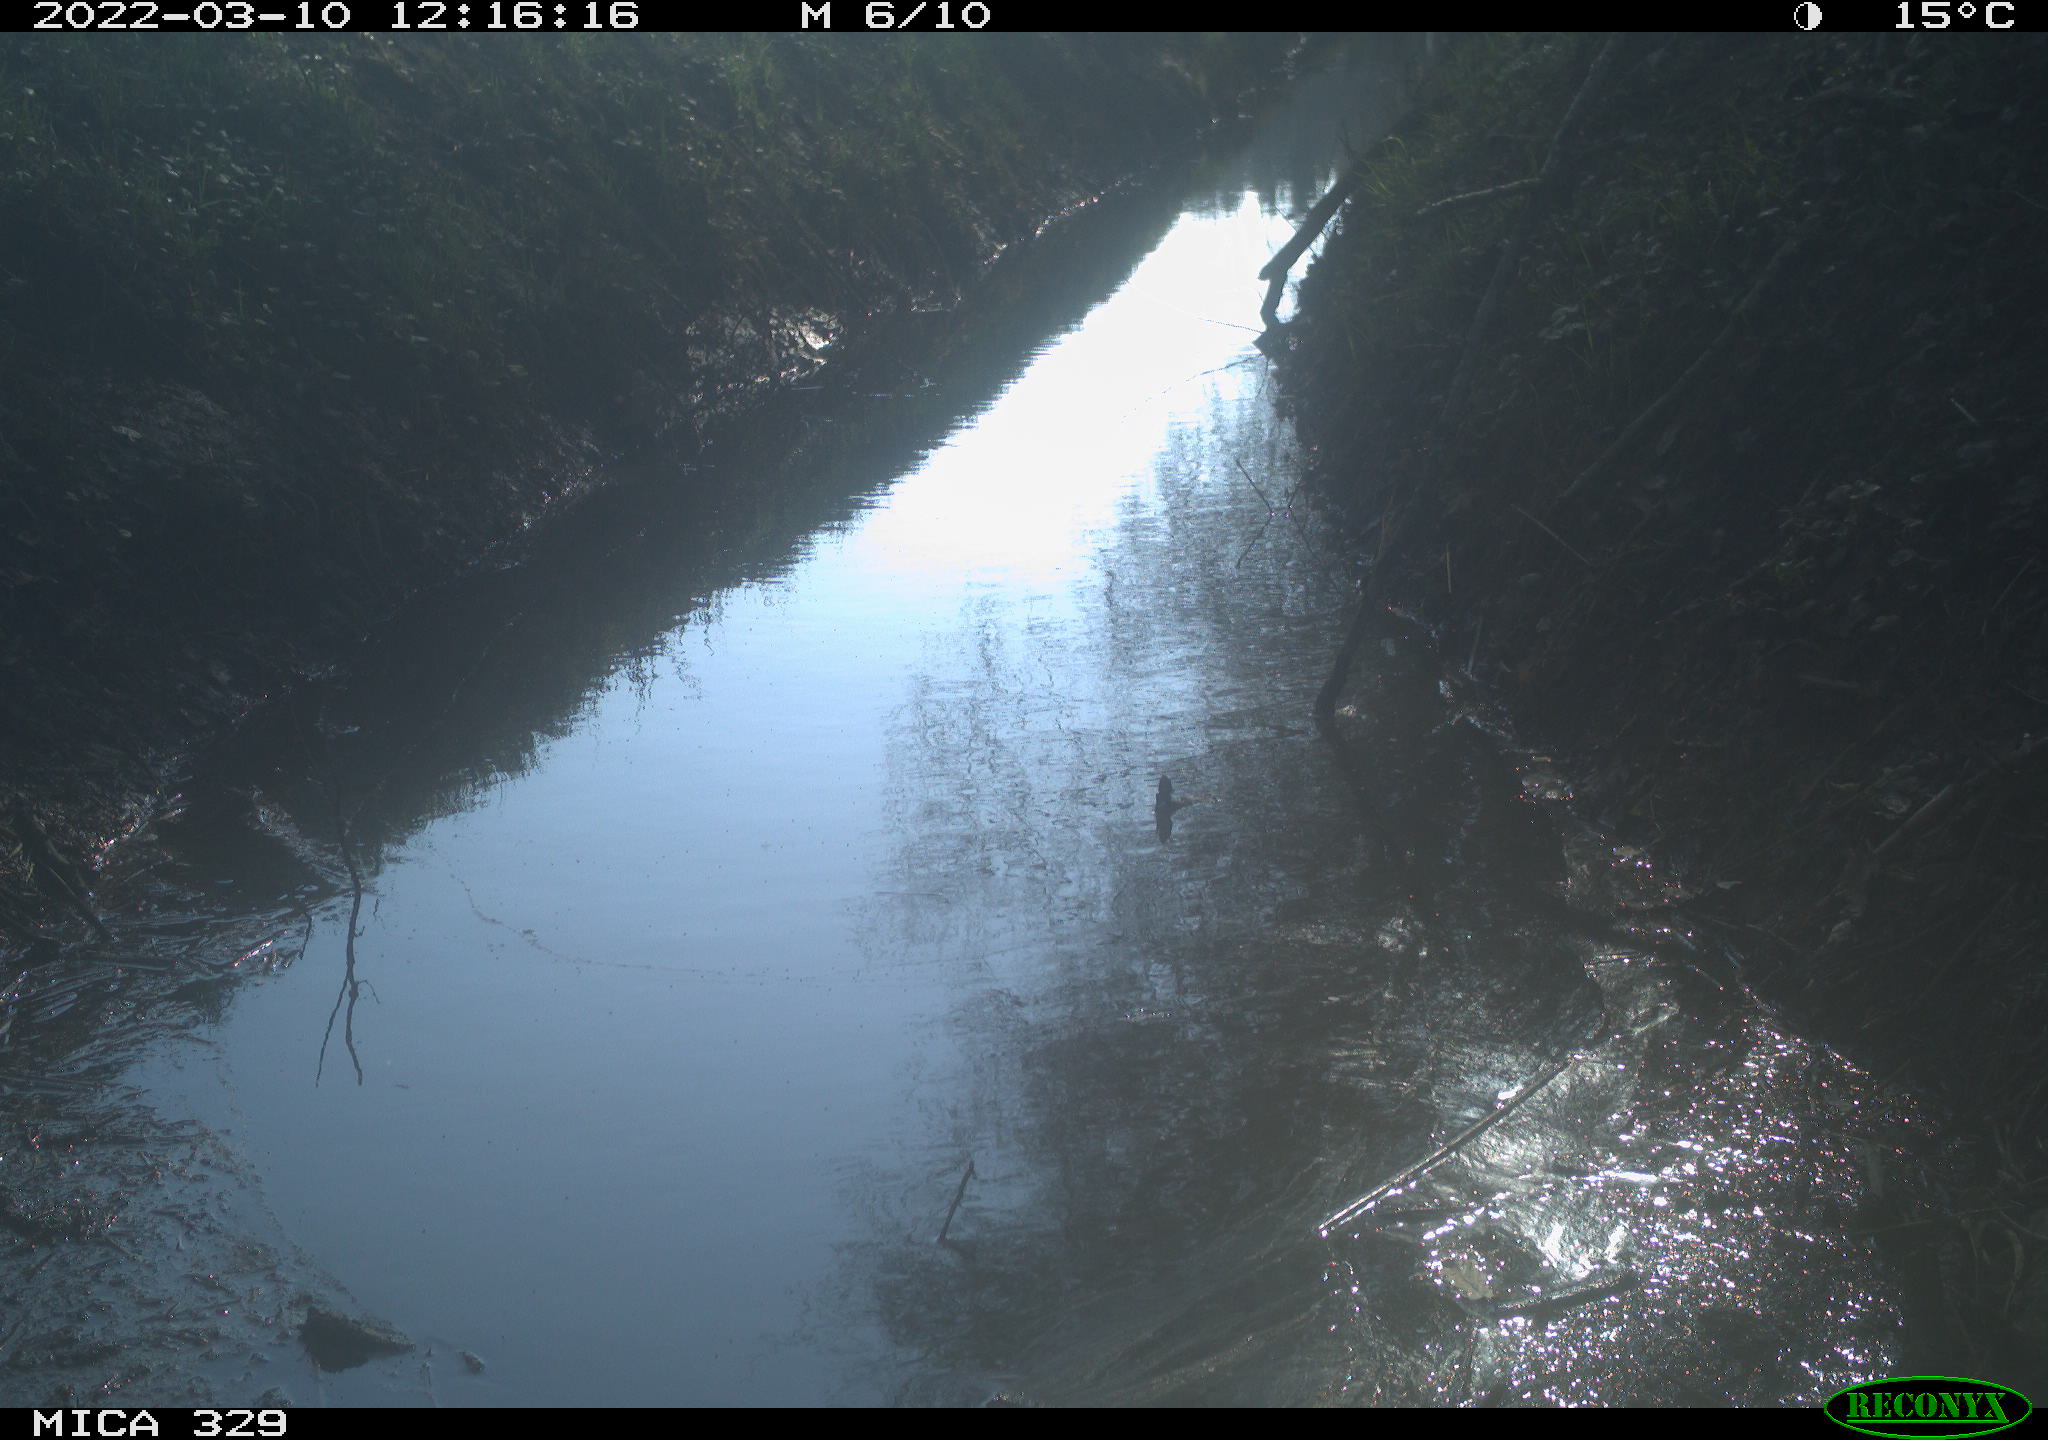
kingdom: Animalia
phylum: Chordata
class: Aves
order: Coraciiformes
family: Alcedinidae
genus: Alcedo
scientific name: Alcedo atthis
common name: Common kingfisher
